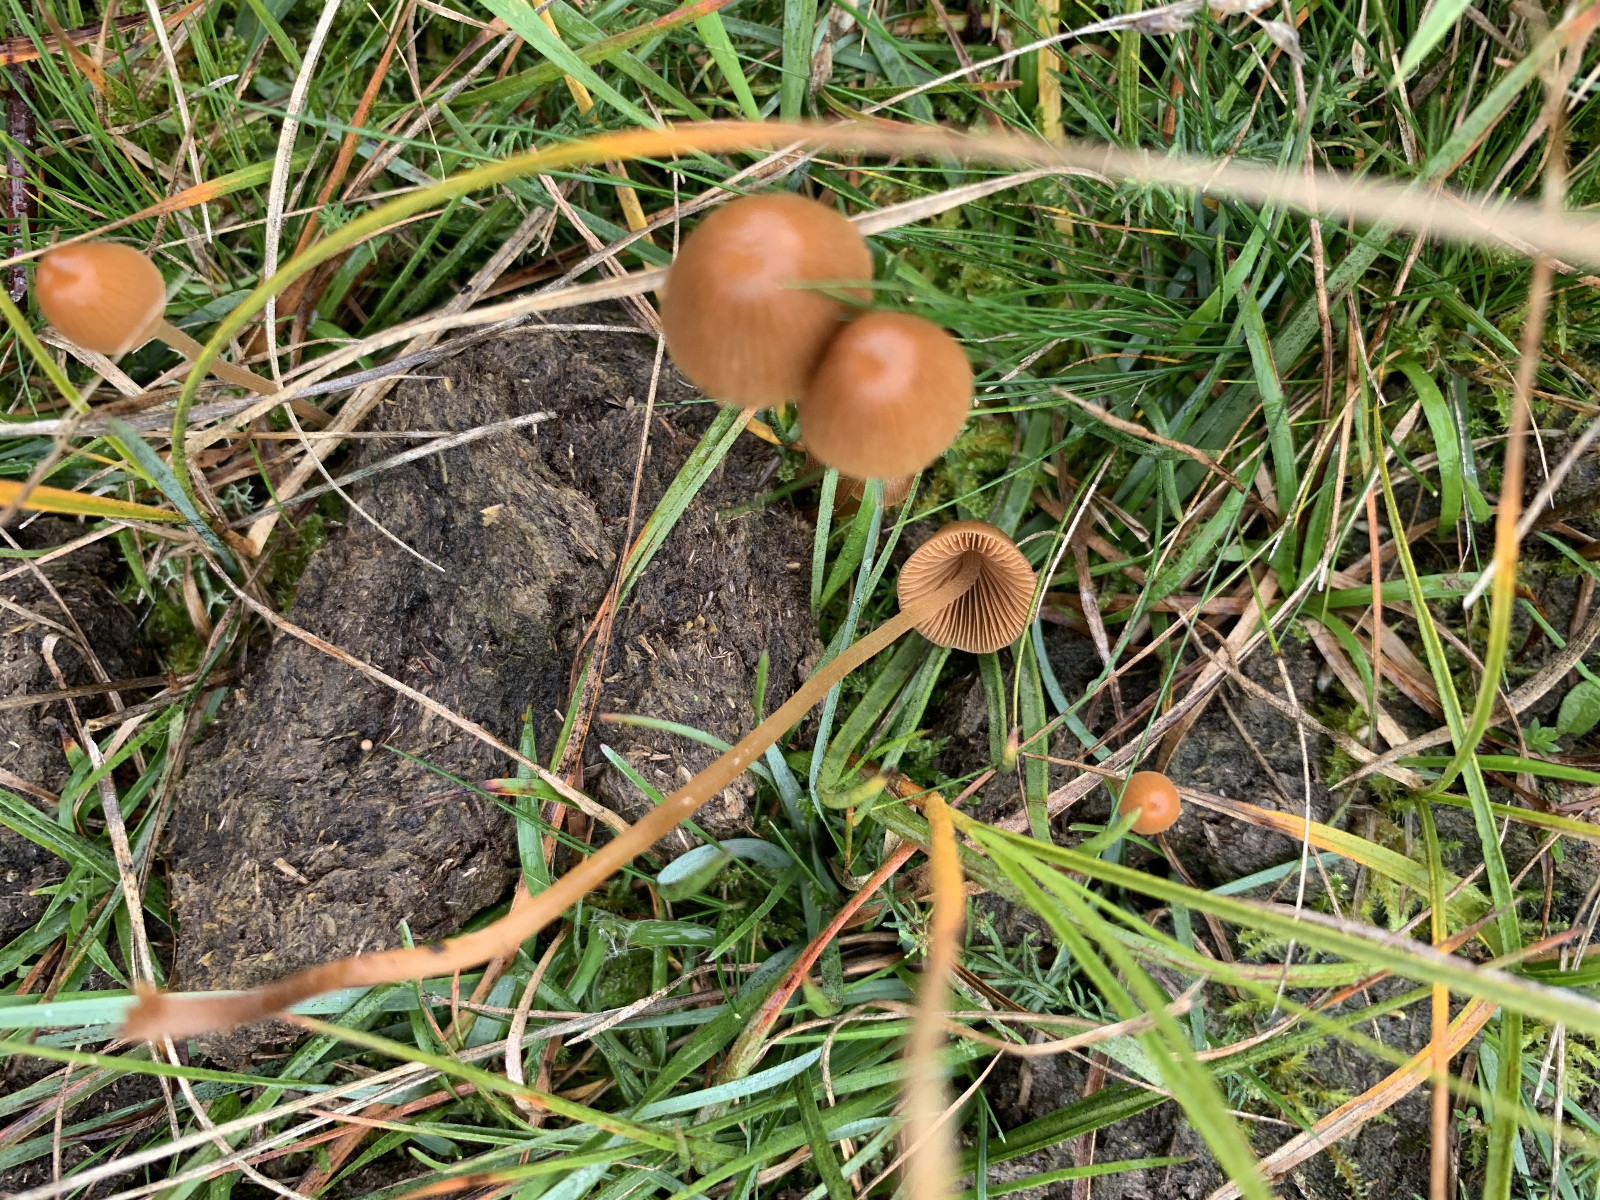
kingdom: Fungi
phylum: Basidiomycota
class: Agaricomycetes
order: Agaricales
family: Bolbitiaceae
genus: Conocybe
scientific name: Conocybe pubescens
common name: gødnings-keglehat
